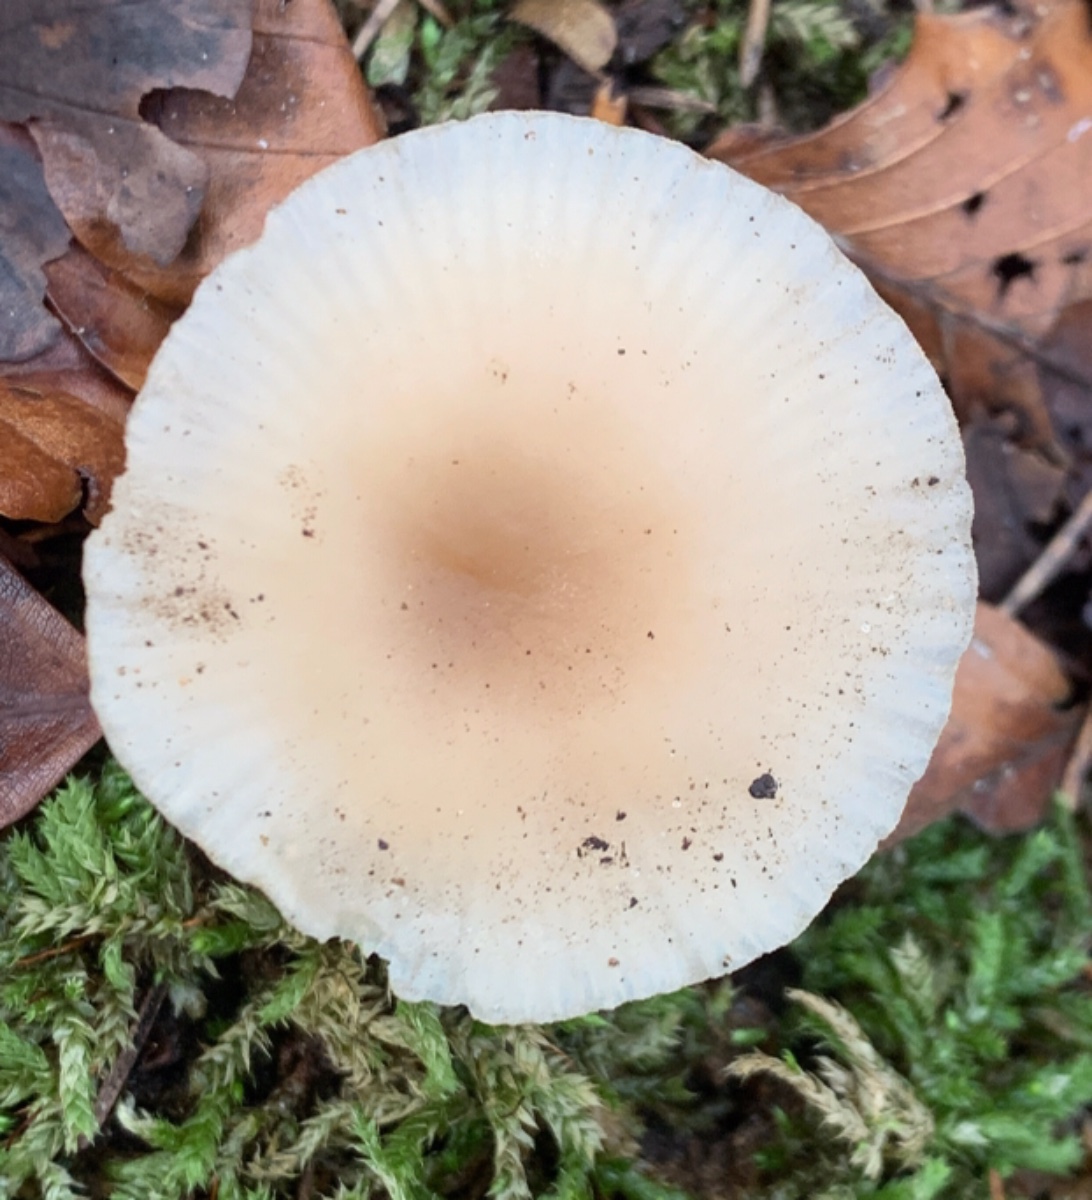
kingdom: Fungi
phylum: Basidiomycota
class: Agaricomycetes
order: Agaricales
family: Tricholomataceae
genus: Clitocybe
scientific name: Clitocybe fragrans
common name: vellugtende tragthat
